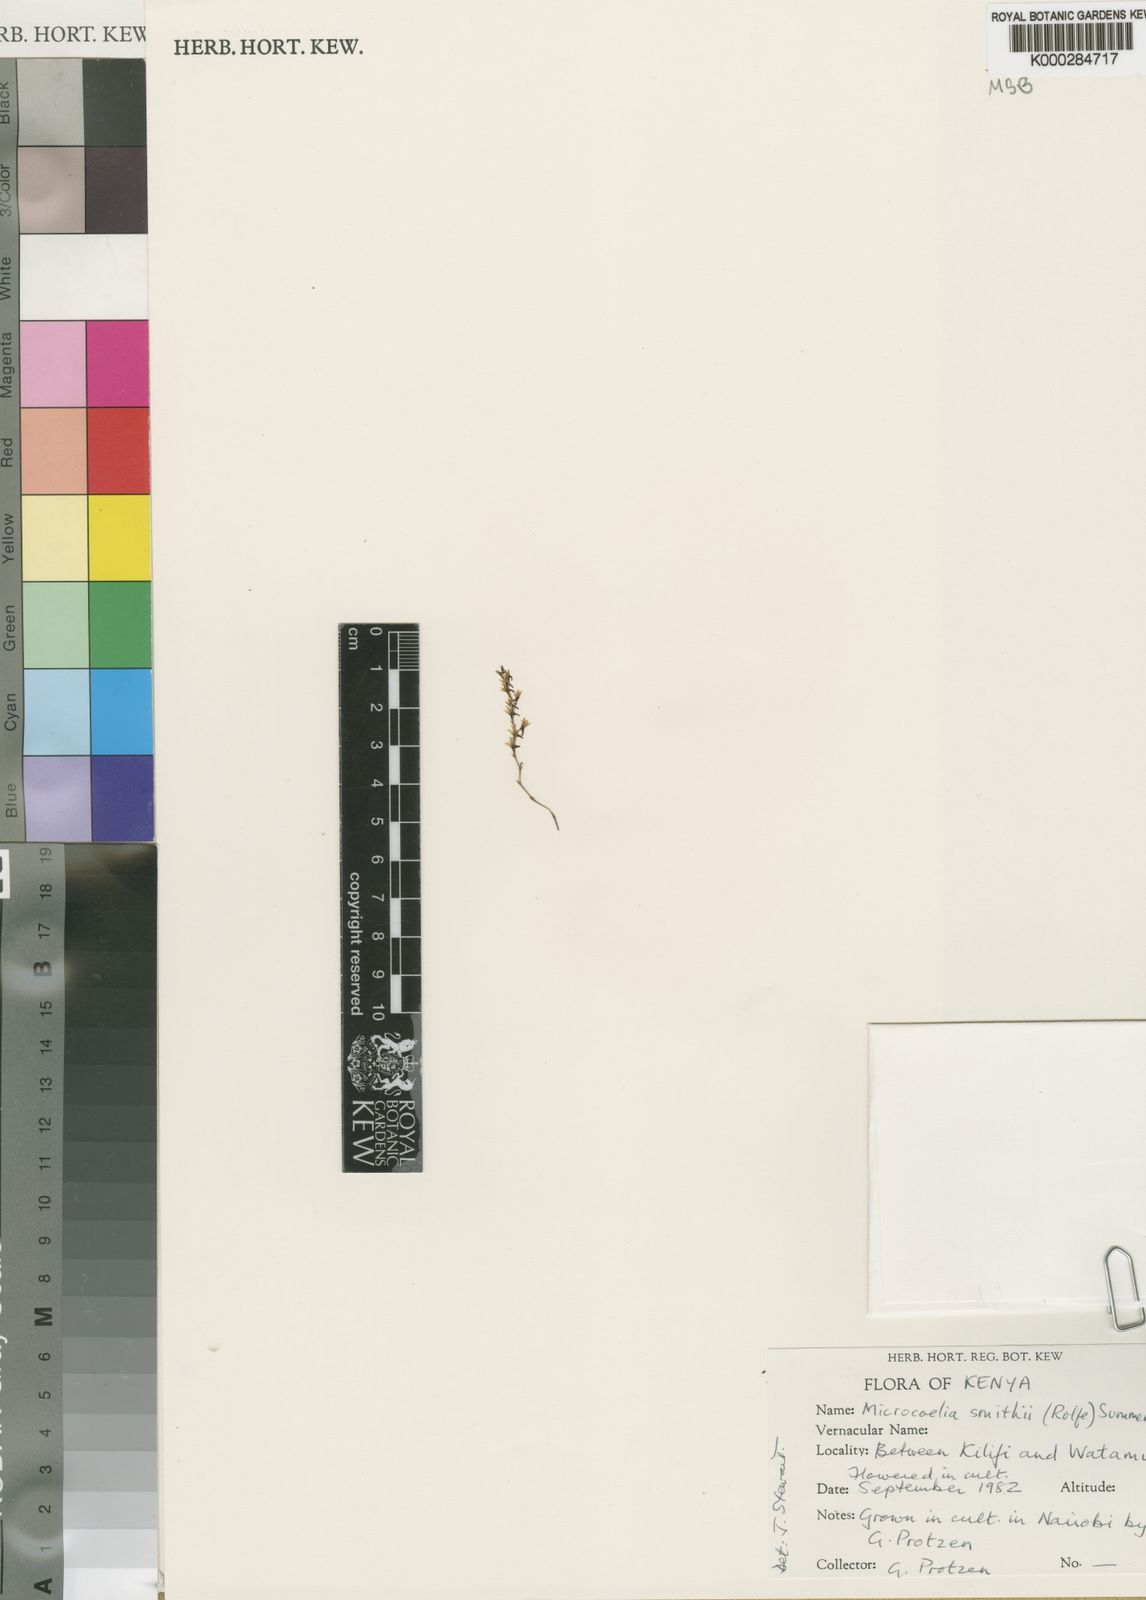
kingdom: Plantae
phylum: Tracheophyta
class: Liliopsida
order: Asparagales
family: Orchidaceae
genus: Microcoelia
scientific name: Microcoelia smithii
